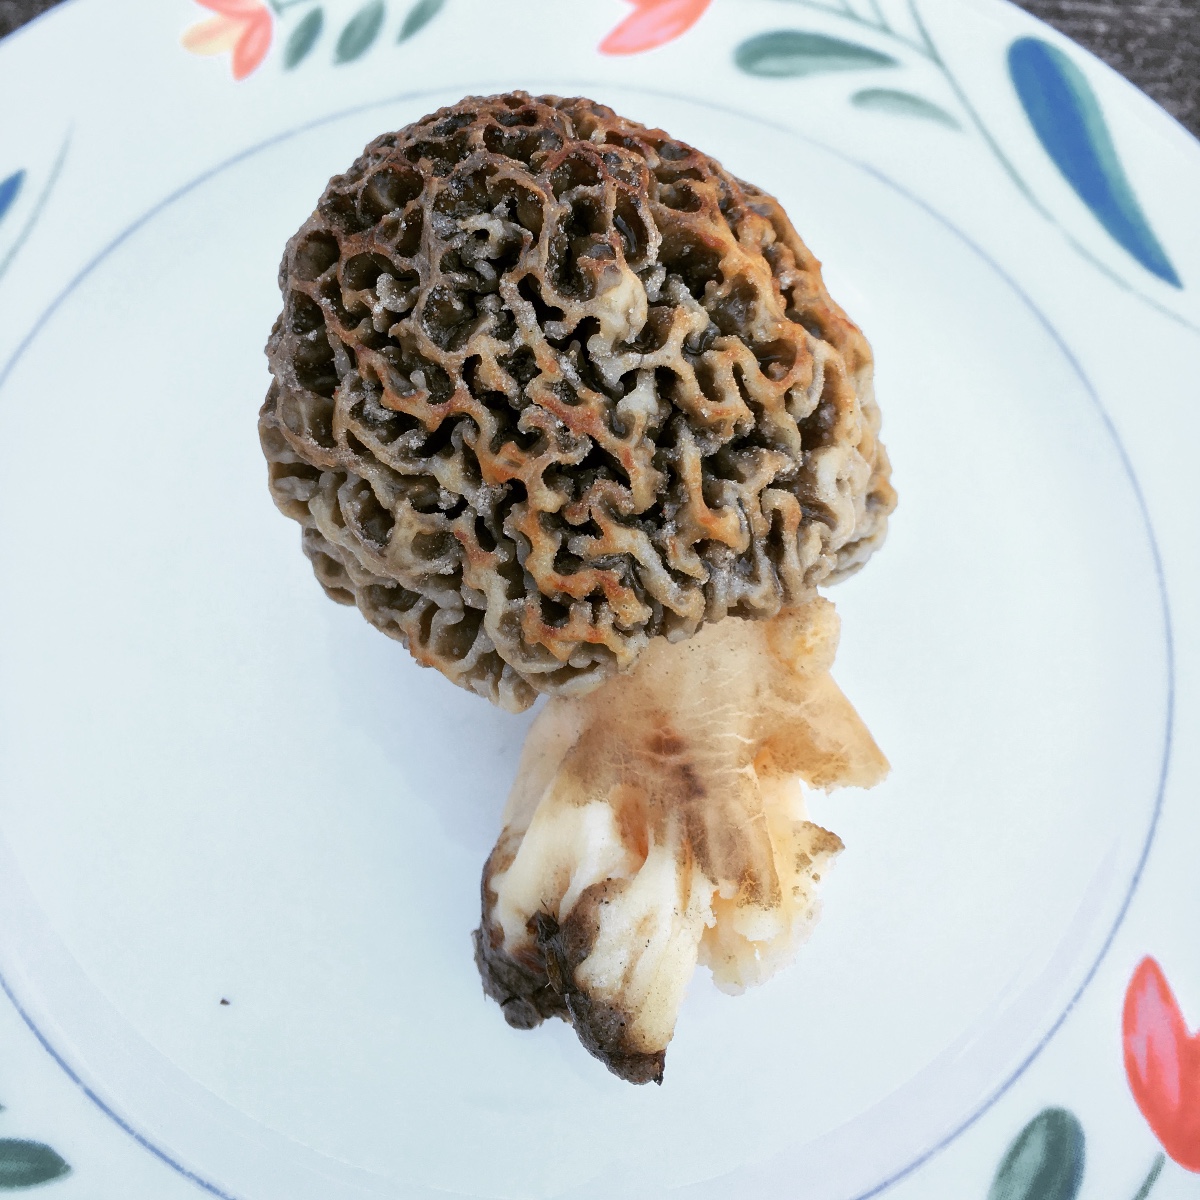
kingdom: Fungi
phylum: Ascomycota
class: Pezizomycetes
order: Pezizales
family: Morchellaceae
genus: Morchella
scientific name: Morchella esculenta
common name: almindelig morkel
